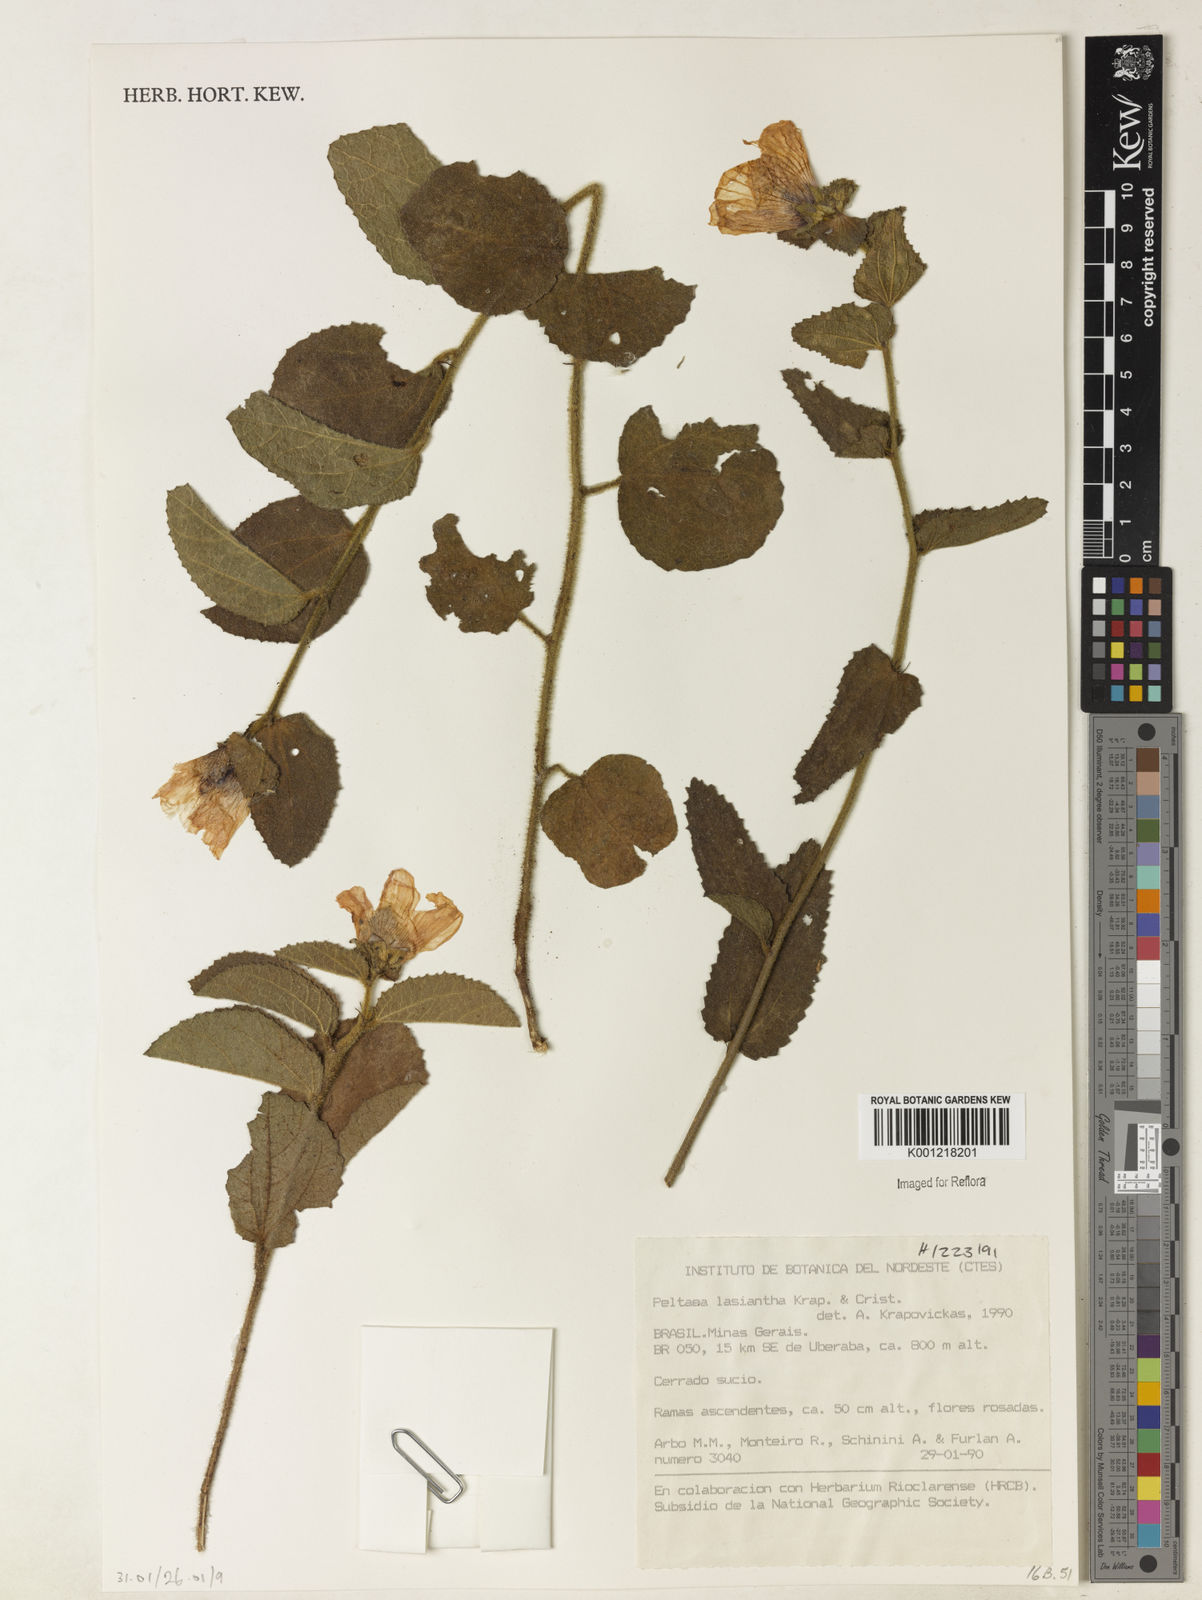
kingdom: Plantae
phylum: Tracheophyta
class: Magnoliopsida
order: Malvales
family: Malvaceae
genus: Peltaea
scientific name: Peltaea
